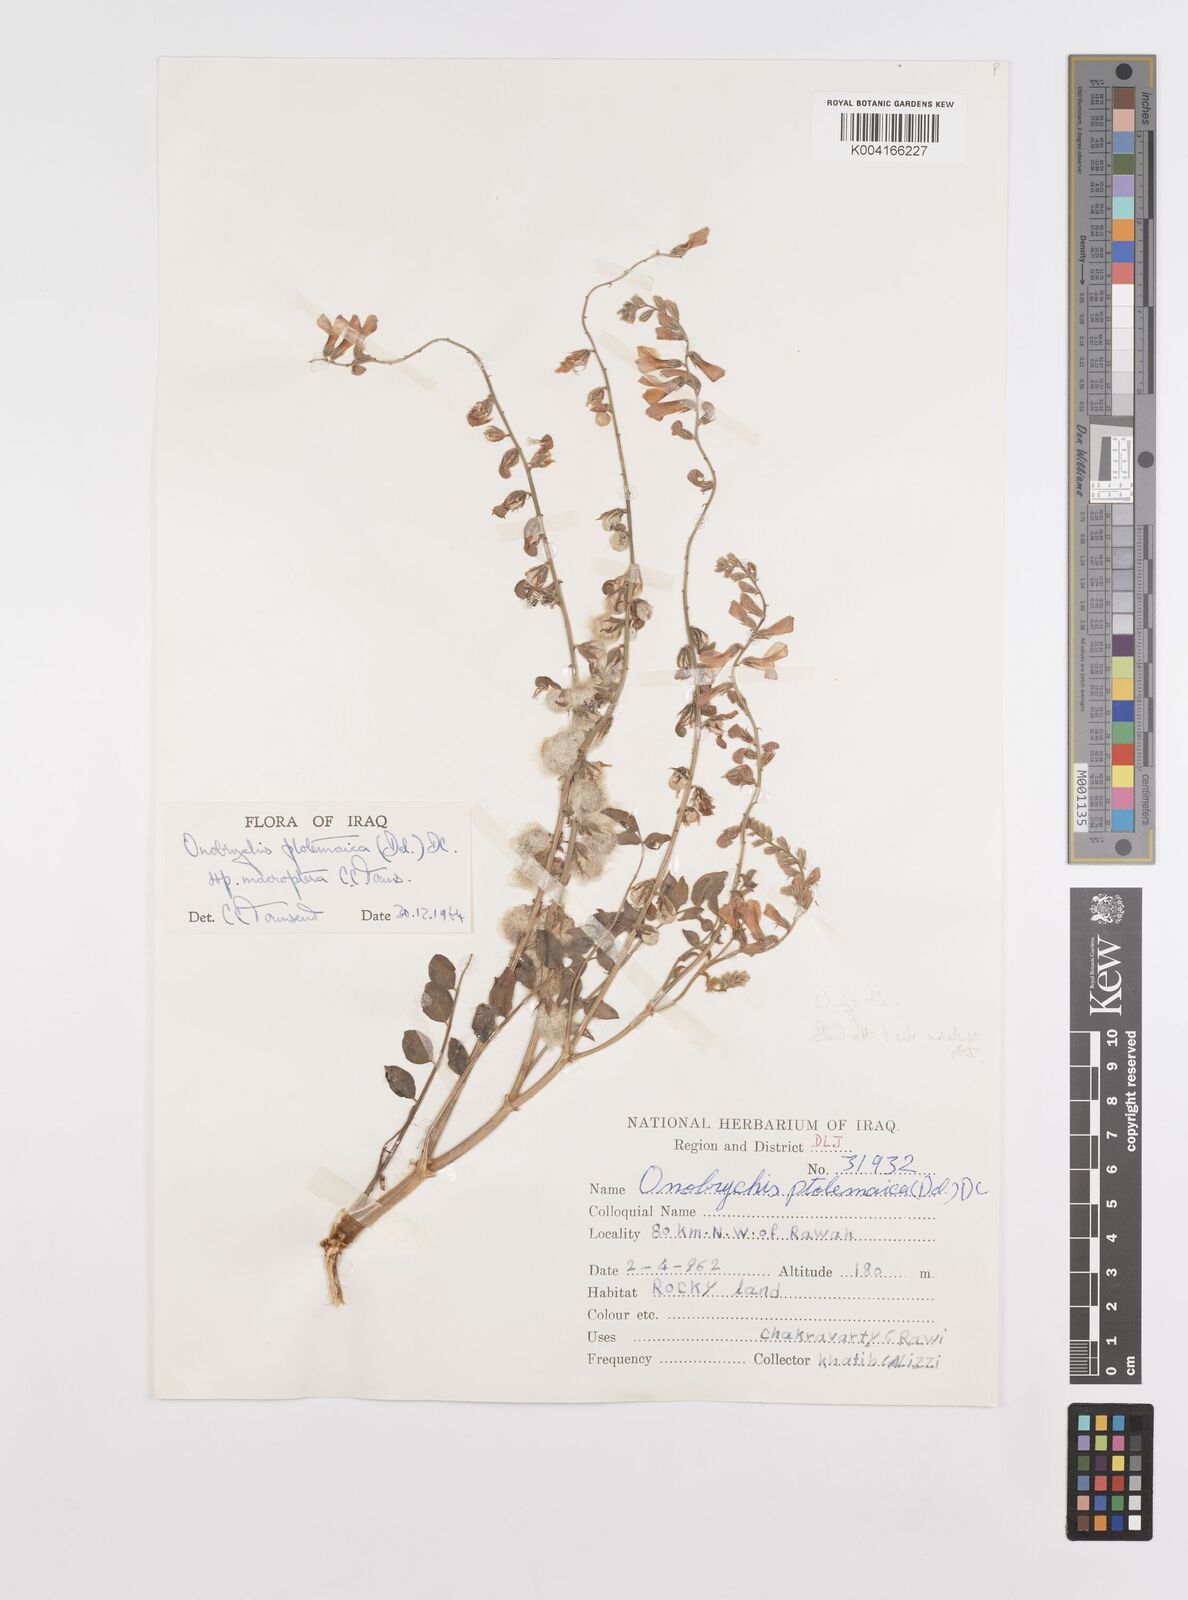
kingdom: Plantae
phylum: Tracheophyta
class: Magnoliopsida
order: Fabales
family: Fabaceae
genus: Onobrychis
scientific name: Onobrychis ptolemaica
